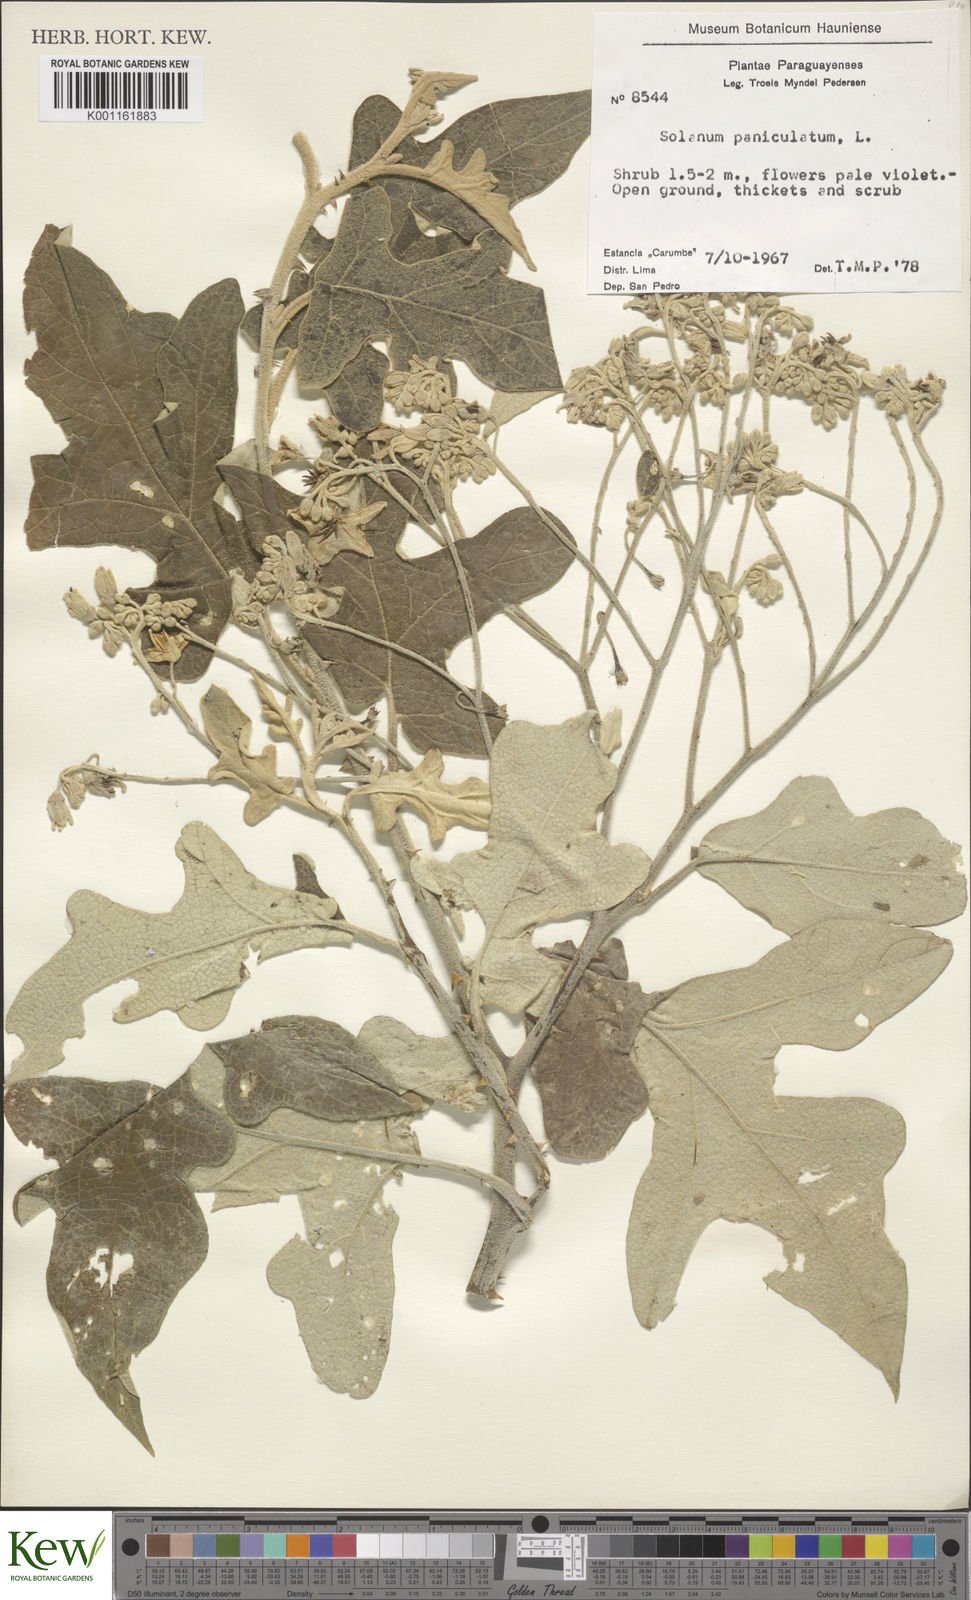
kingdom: Plantae
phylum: Tracheophyta
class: Magnoliopsida
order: Solanales
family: Solanaceae
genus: Solanum
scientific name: Solanum paniculatum
